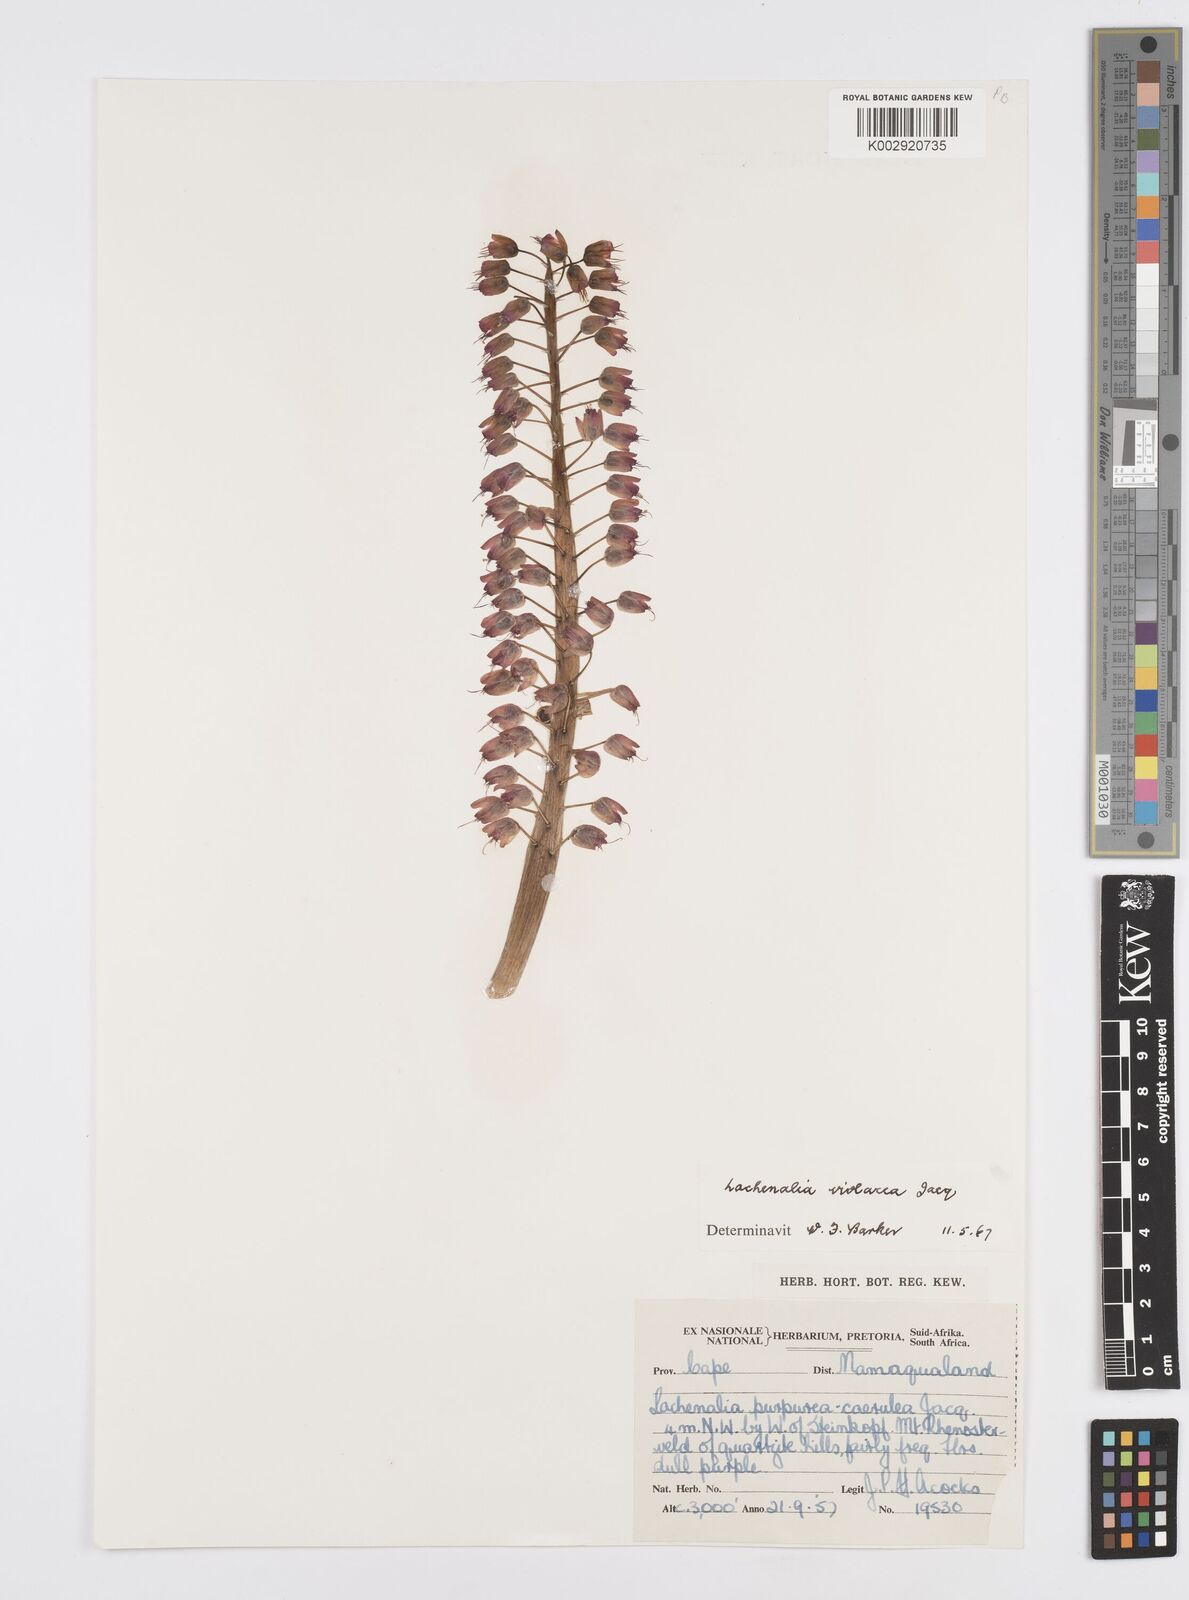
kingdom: Plantae
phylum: Tracheophyta
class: Liliopsida
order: Asparagales
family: Asparagaceae
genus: Lachenalia
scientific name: Lachenalia violacea
